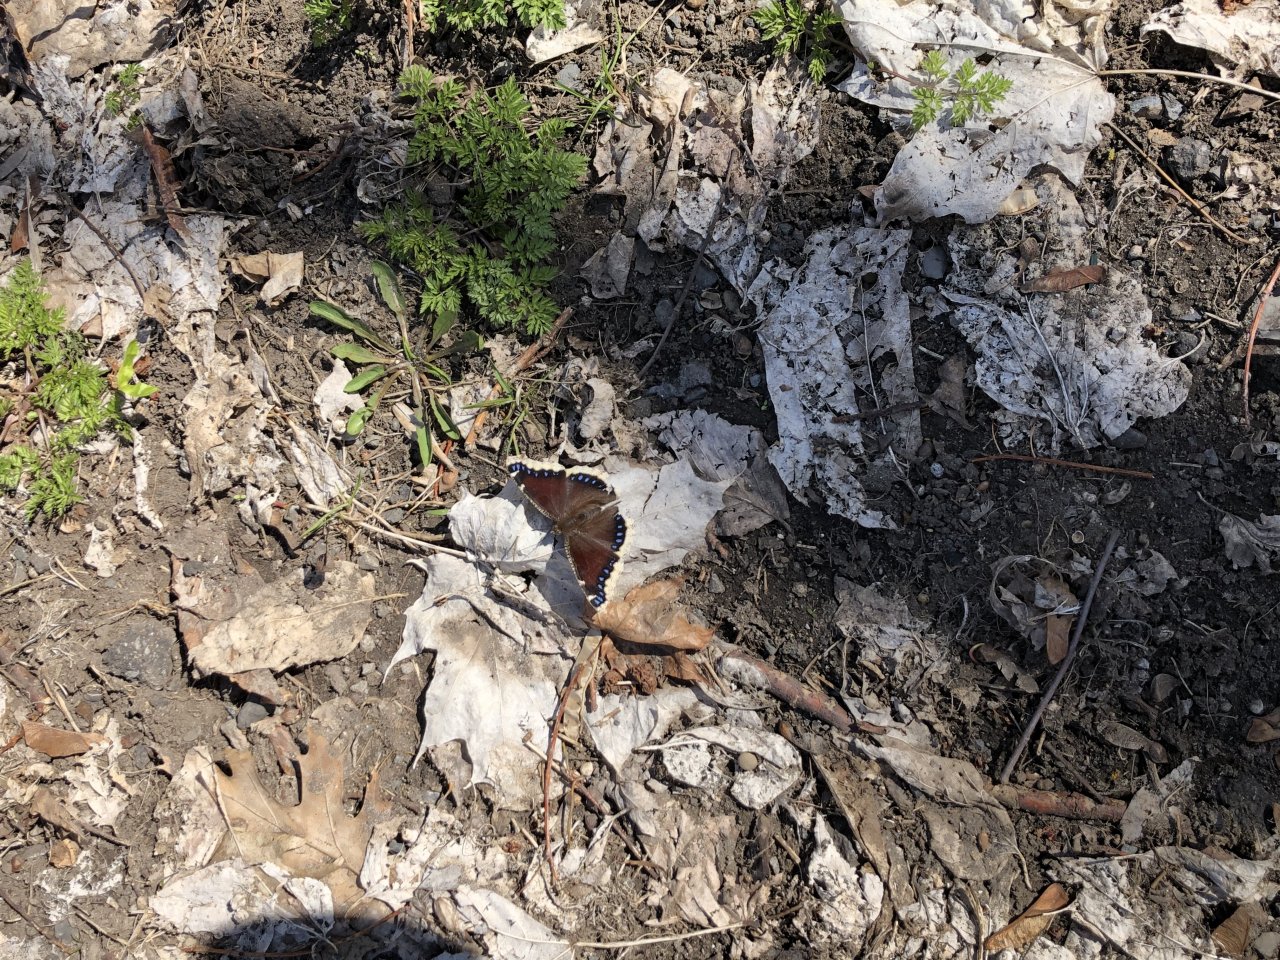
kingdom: Animalia
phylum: Arthropoda
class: Insecta
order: Lepidoptera
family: Nymphalidae
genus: Nymphalis
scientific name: Nymphalis antiopa
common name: Mourning Cloak
